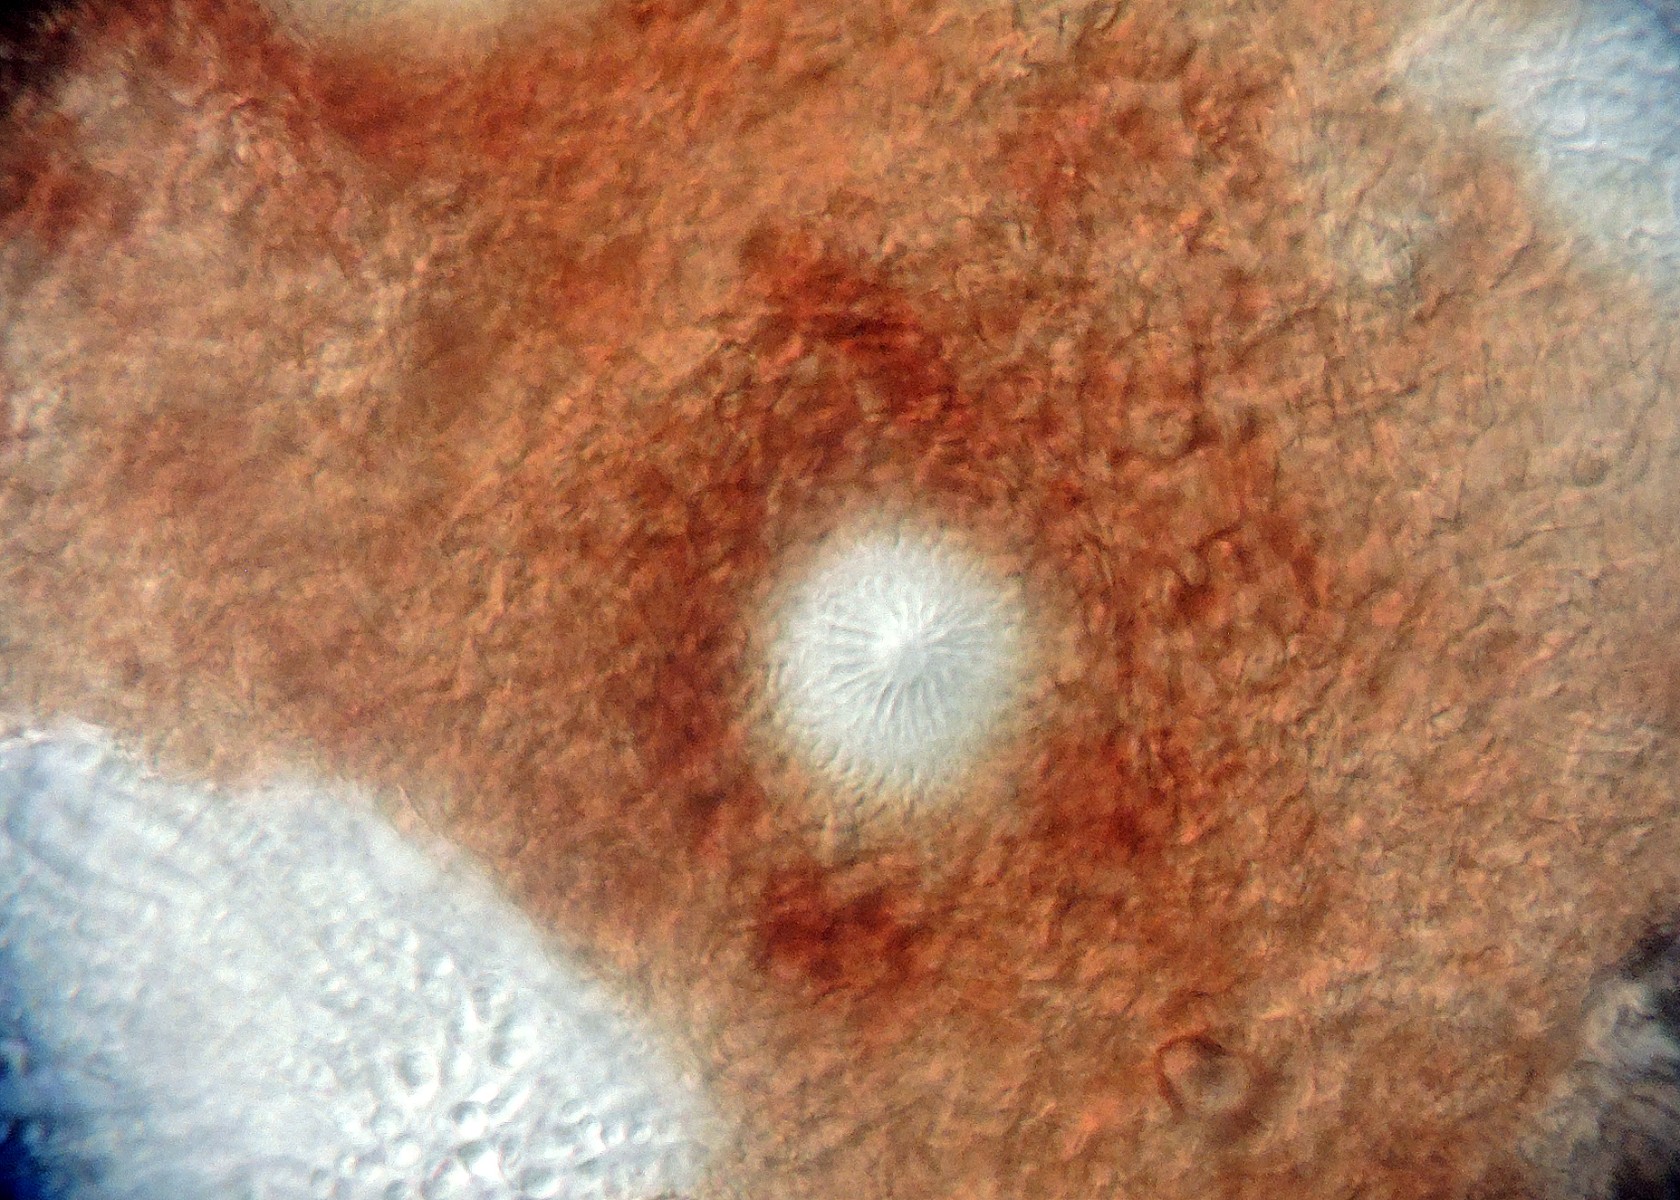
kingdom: Fungi
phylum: Ascomycota
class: Sordariomycetes
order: Hypocreales
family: Hypocreaceae
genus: Trichoderma
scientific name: Trichoderma
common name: kødkerne
